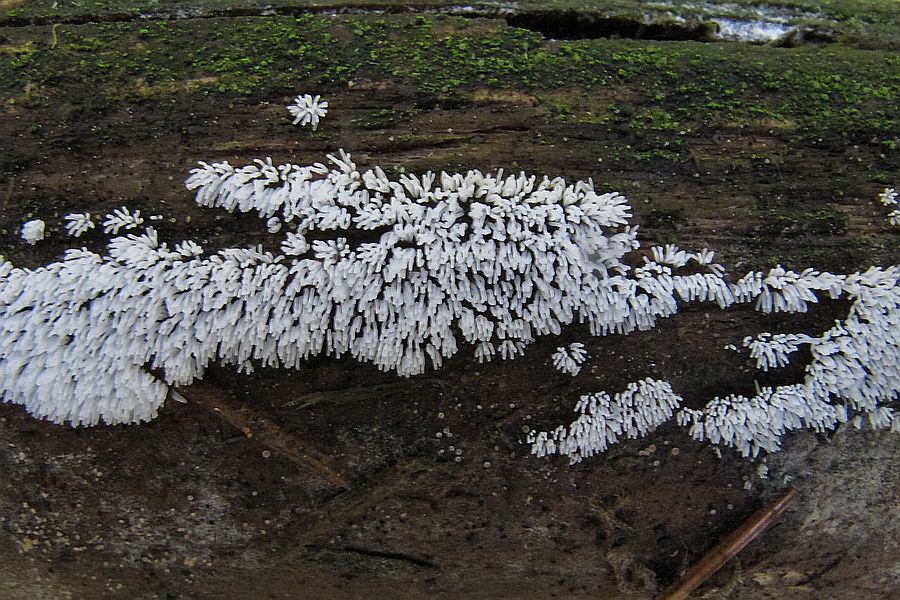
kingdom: Protozoa
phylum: Mycetozoa
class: Protosteliomycetes
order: Ceratiomyxales
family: Ceratiomyxaceae
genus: Ceratiomyxa
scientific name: Ceratiomyxa fruticulosa
